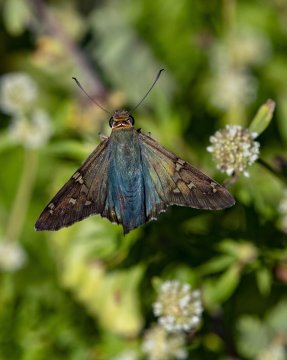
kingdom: Animalia
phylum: Arthropoda
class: Insecta
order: Lepidoptera
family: Hesperiidae
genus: Urbanus
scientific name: Urbanus proteus
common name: Long-tailed Skipper
